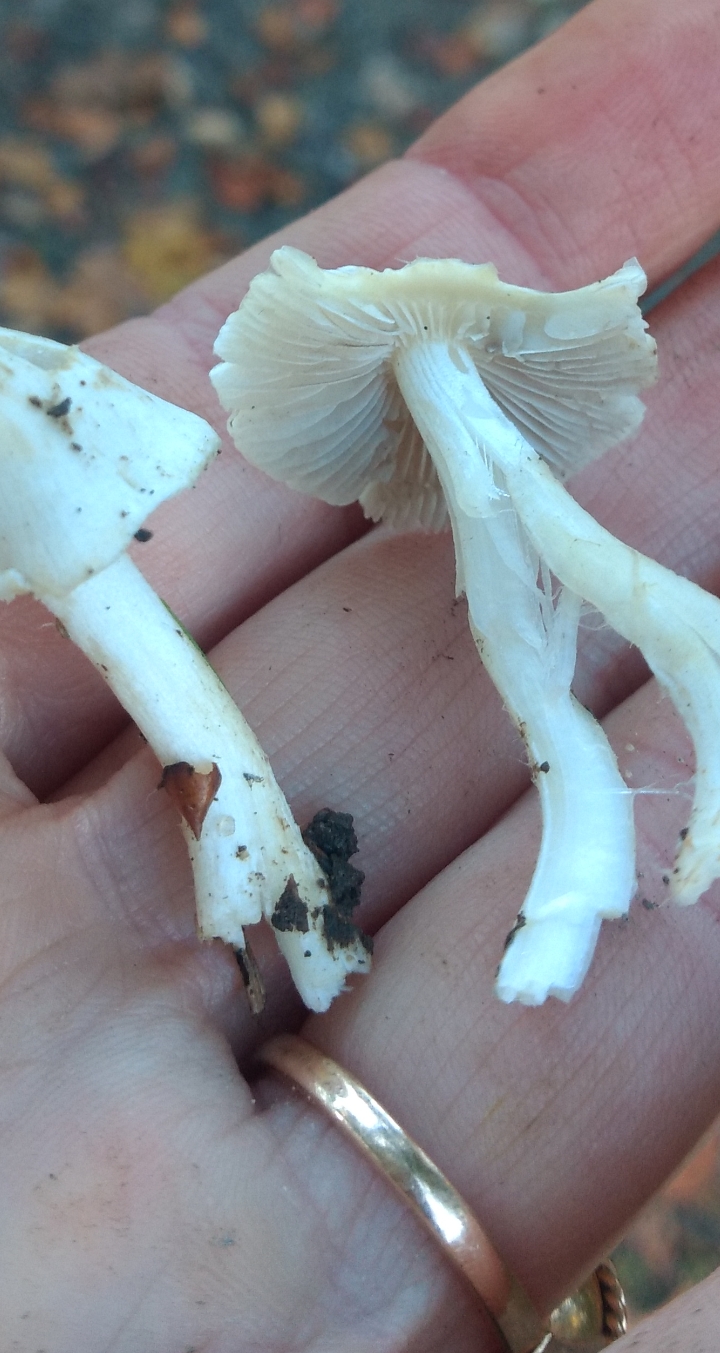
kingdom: Fungi
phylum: Basidiomycota
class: Agaricomycetes
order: Agaricales
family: Inocybaceae
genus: Inocybe
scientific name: Inocybe
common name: trævlhat
